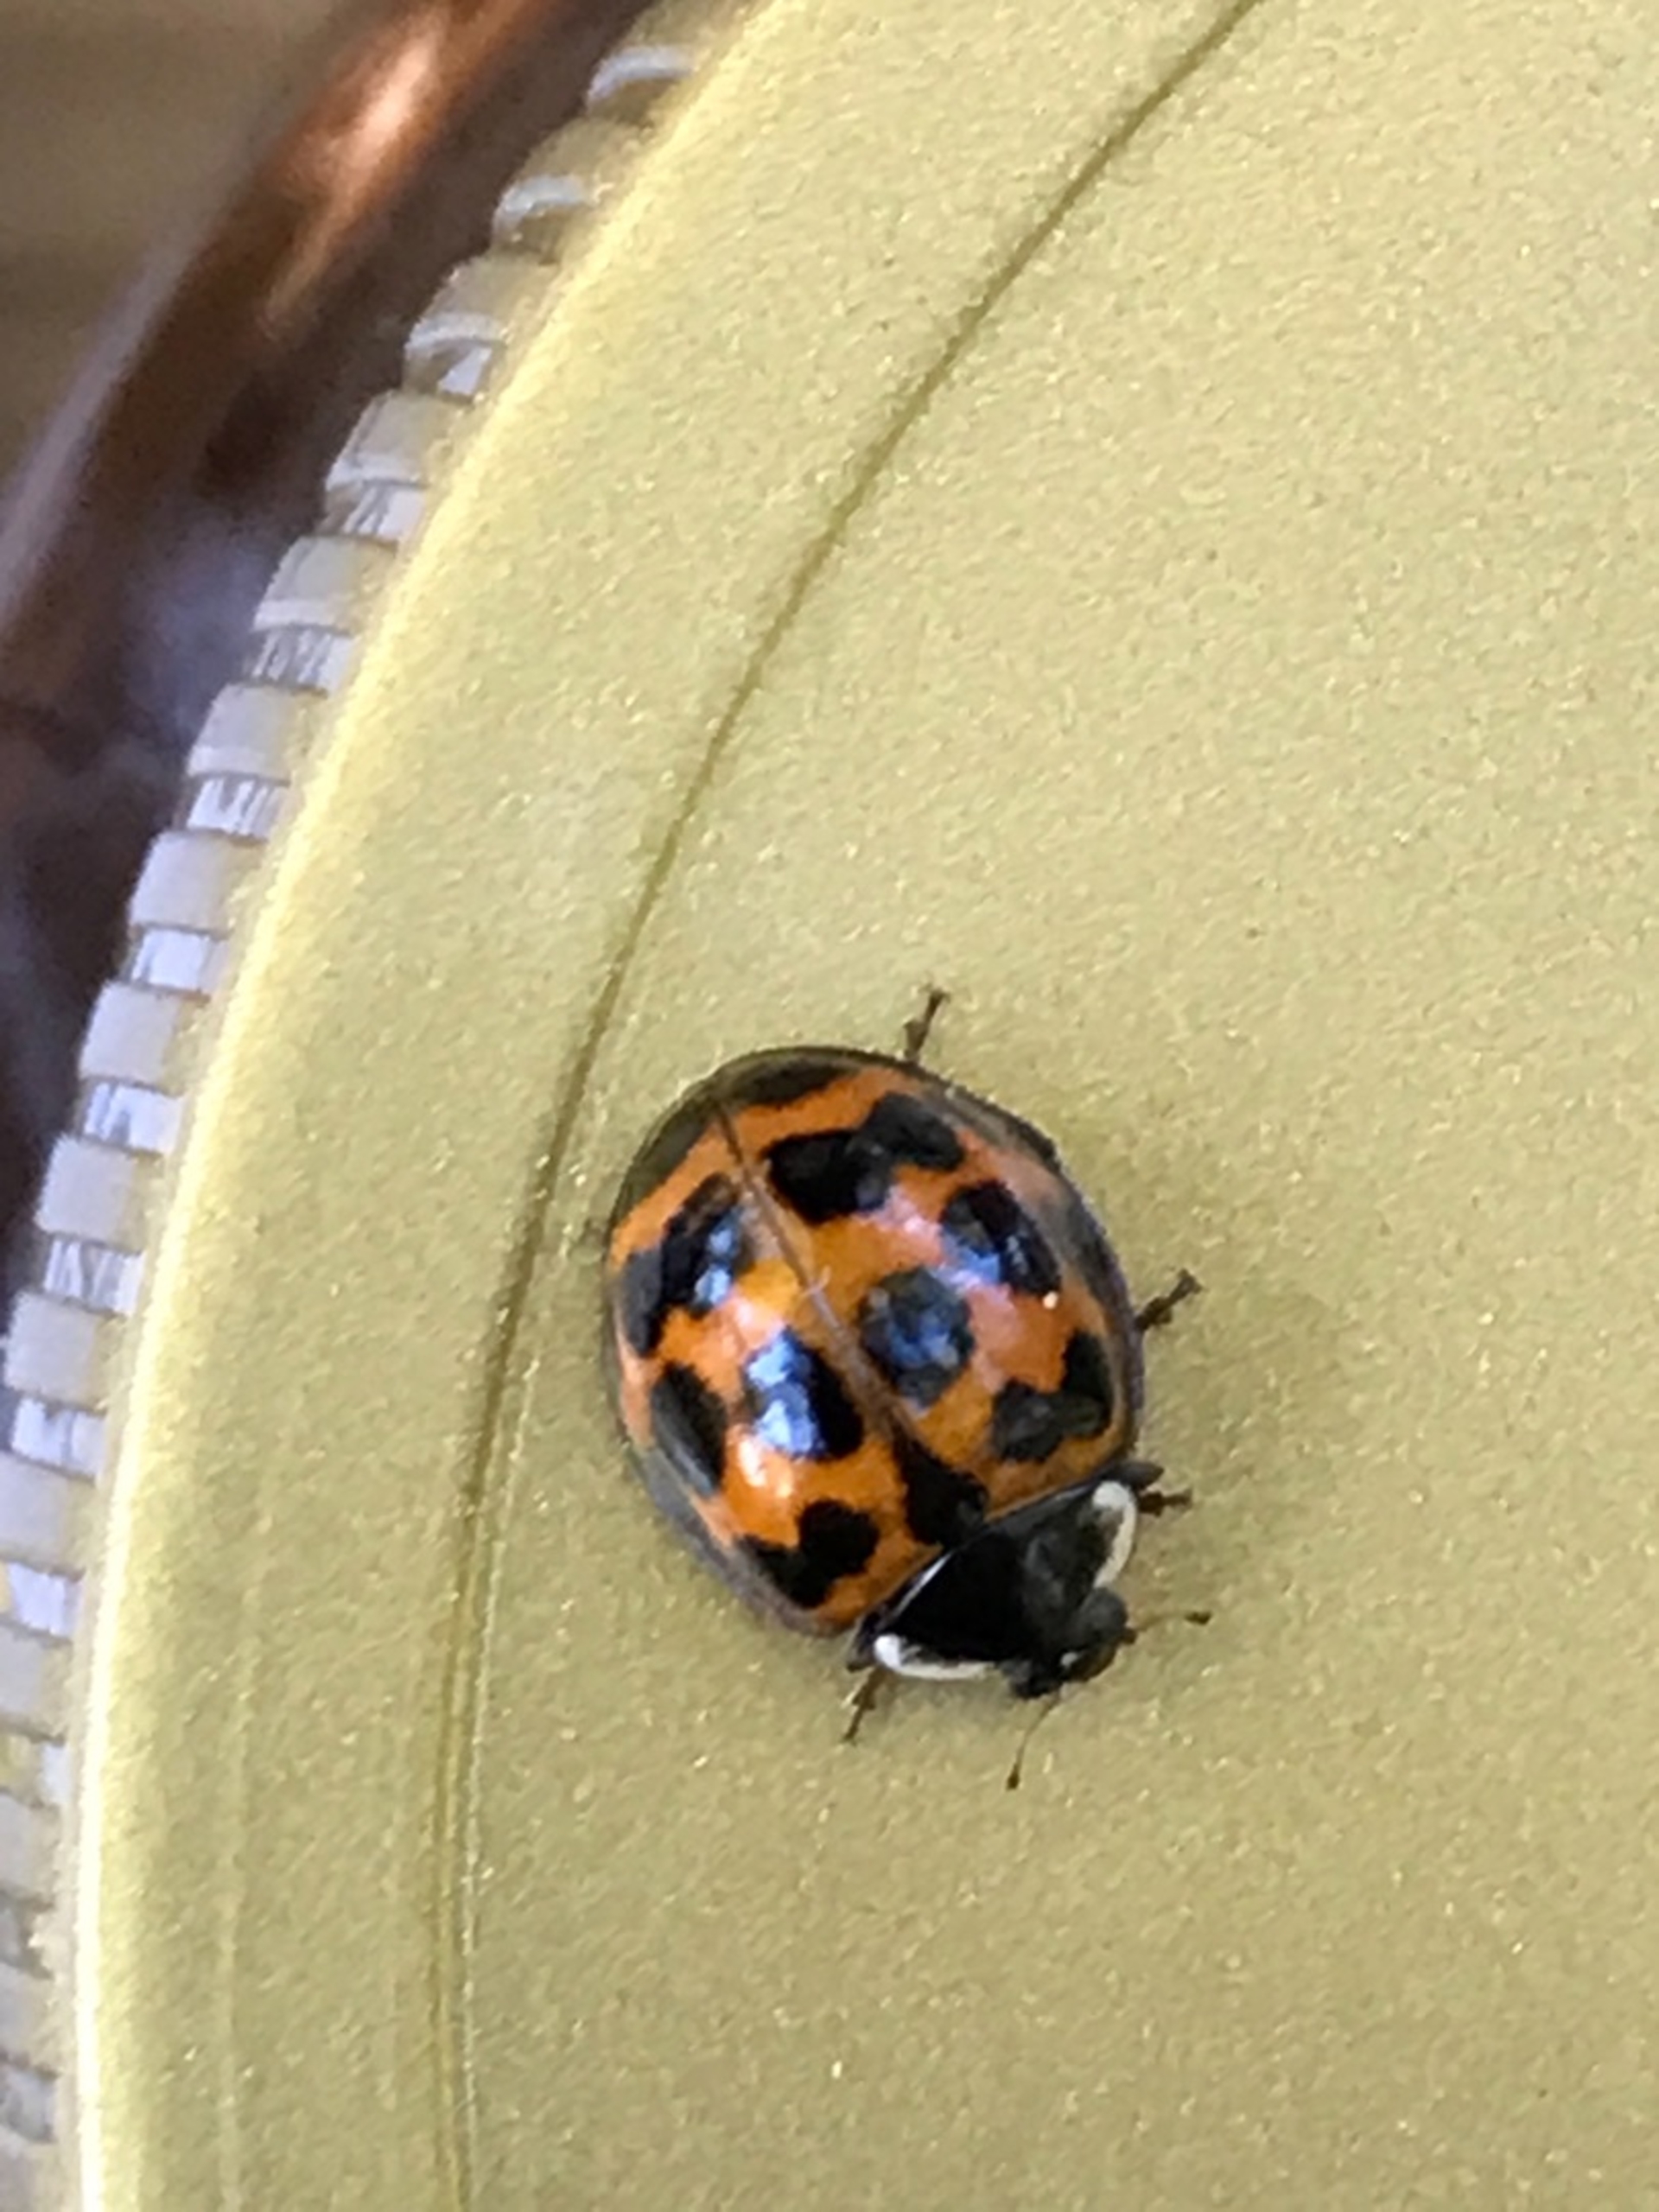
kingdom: Animalia
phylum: Arthropoda
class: Insecta
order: Coleoptera
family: Coccinellidae
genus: Harmonia
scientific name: Harmonia axyridis
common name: Harlekinmariehøne
